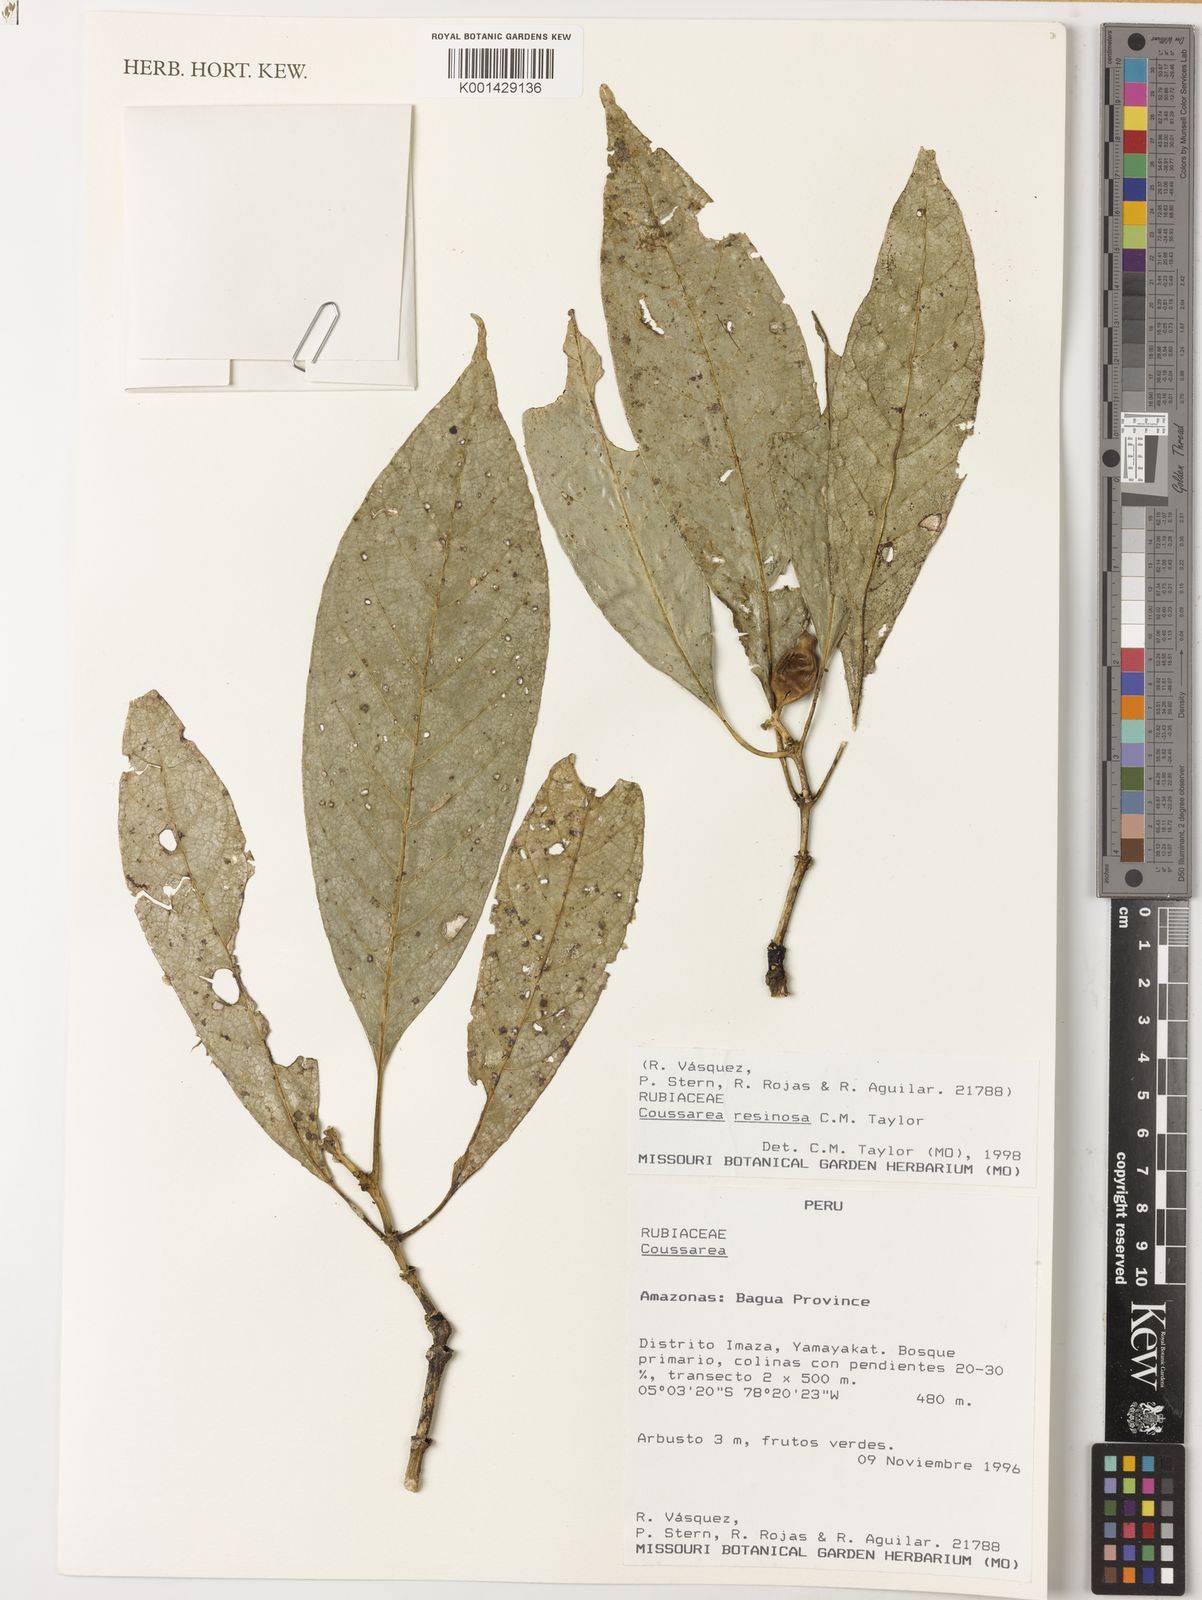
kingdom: Plantae
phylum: Tracheophyta
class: Magnoliopsida
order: Gentianales
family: Rubiaceae
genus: Coussarea
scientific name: Coussarea resinosa
